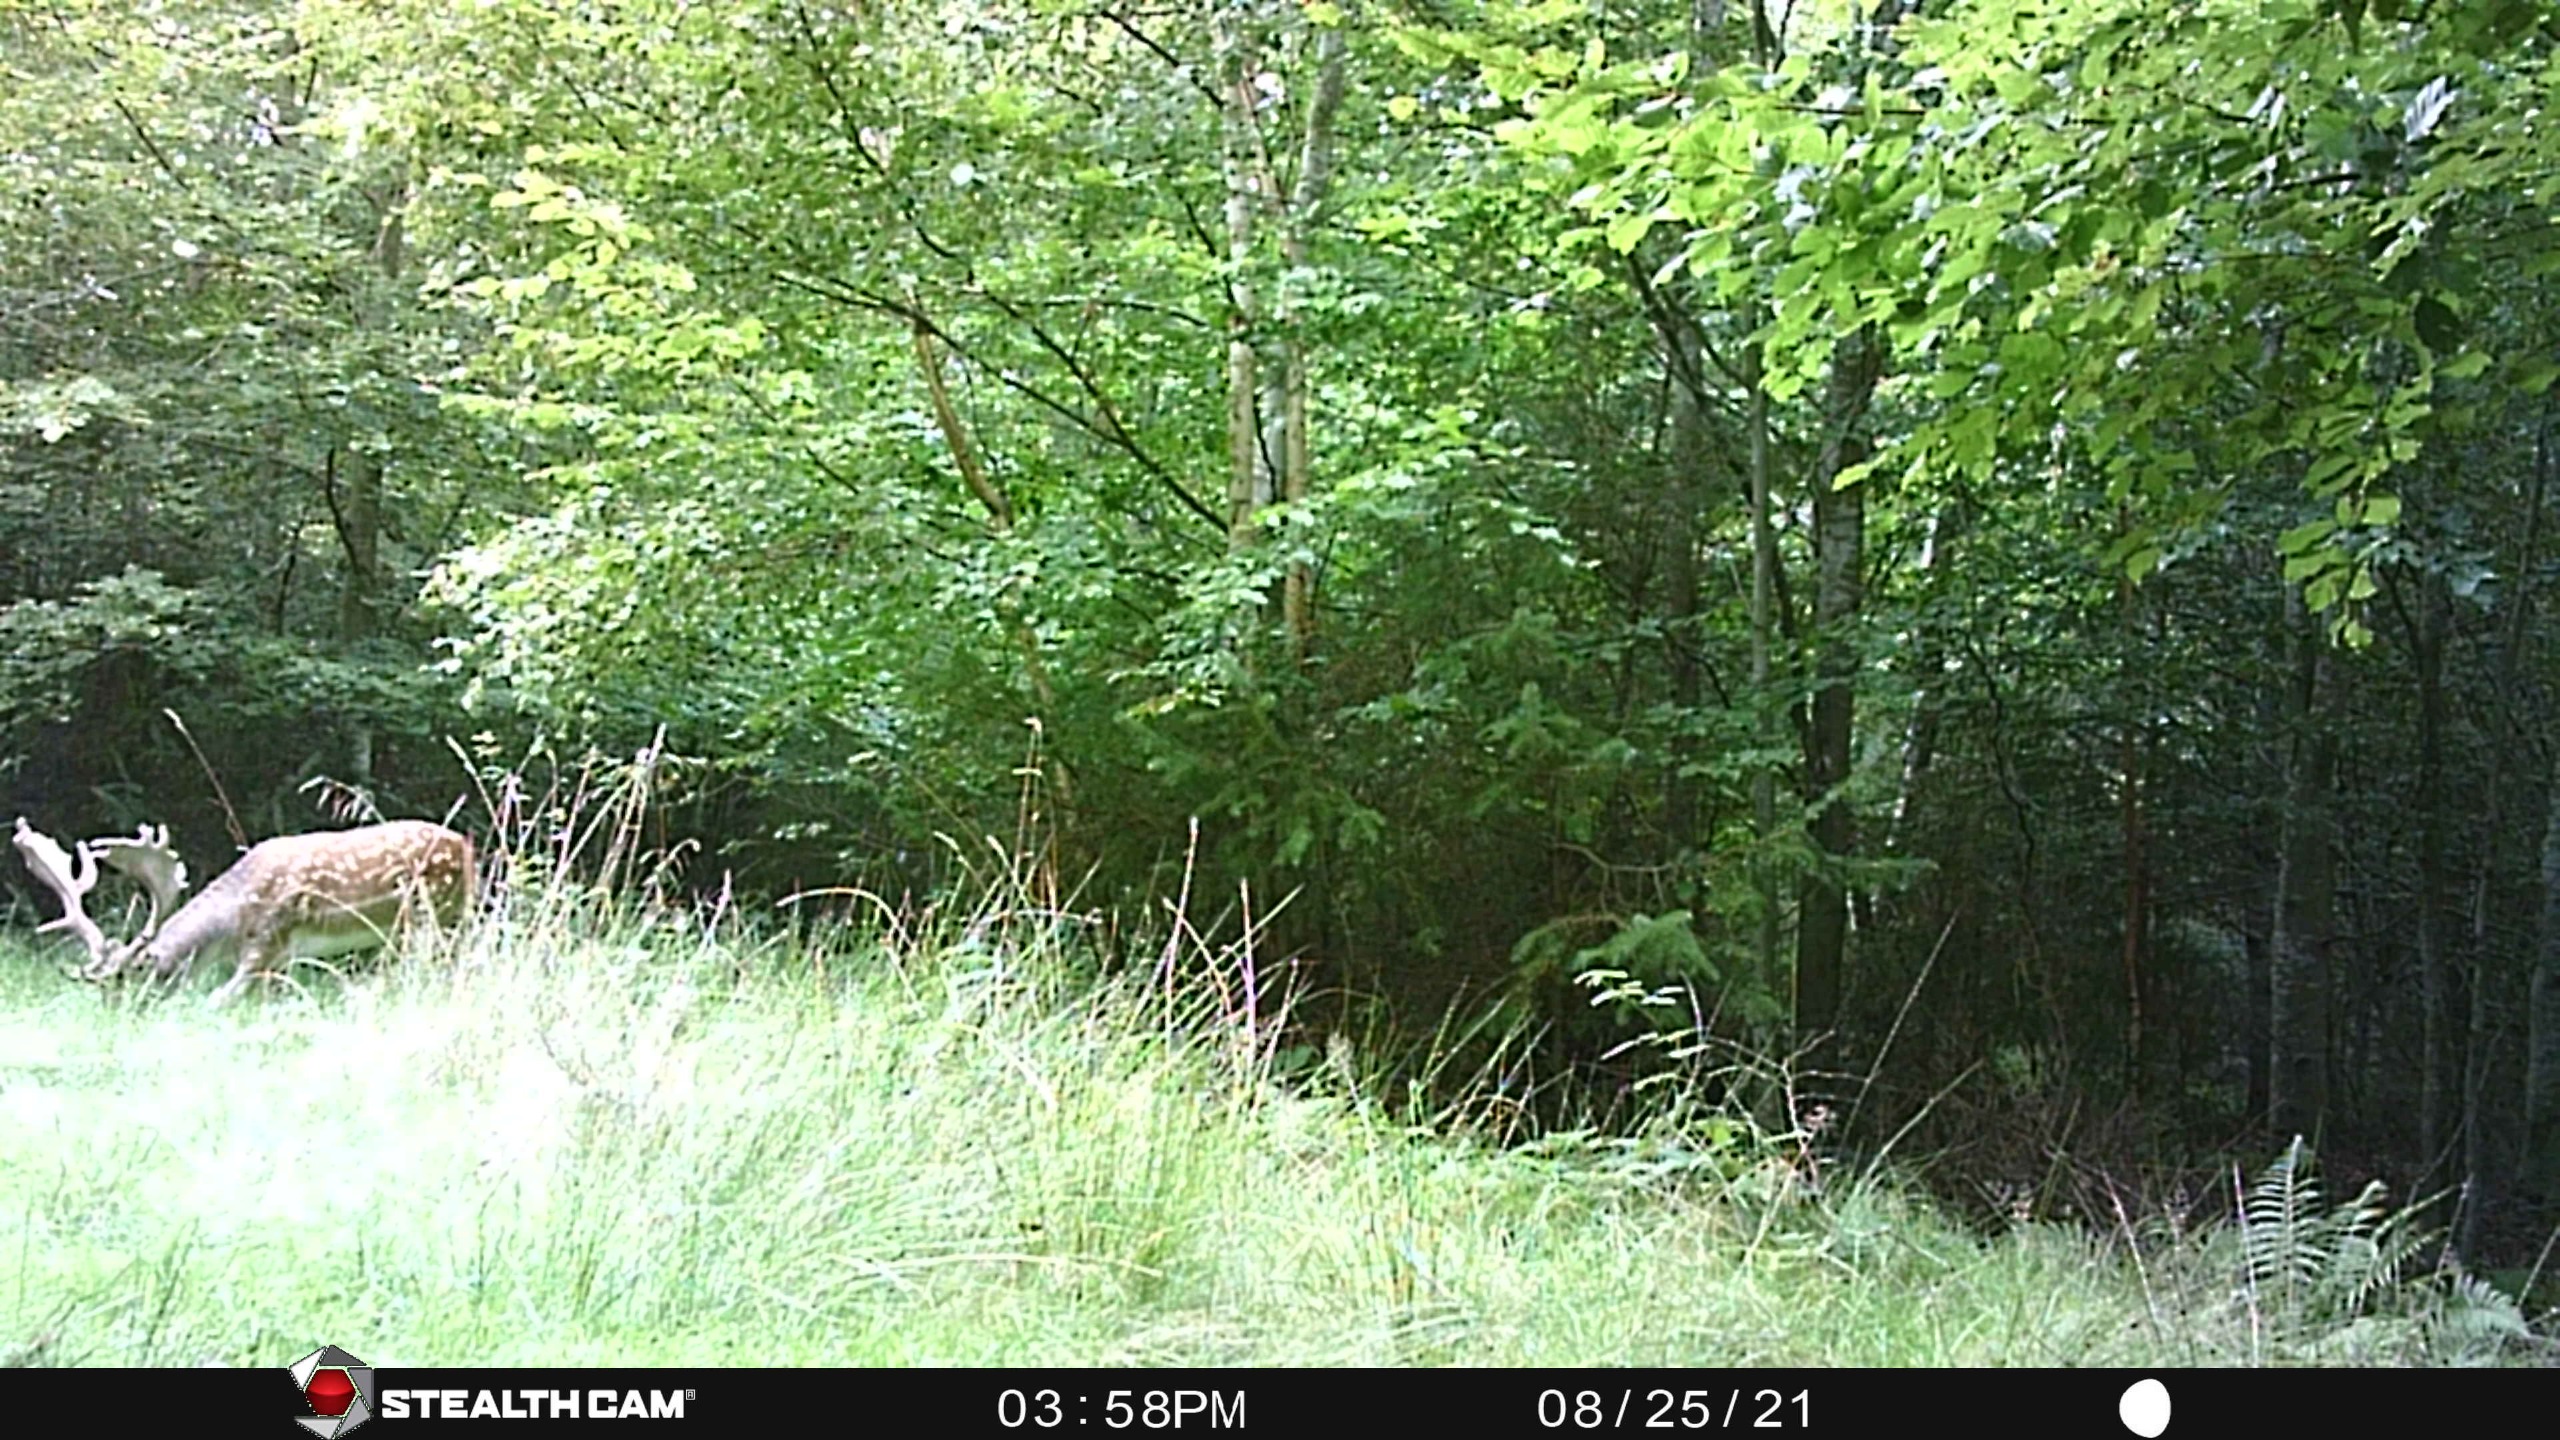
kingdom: Animalia
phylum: Chordata
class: Mammalia
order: Artiodactyla
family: Cervidae
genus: Dama
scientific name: Dama dama
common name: Dådyr
